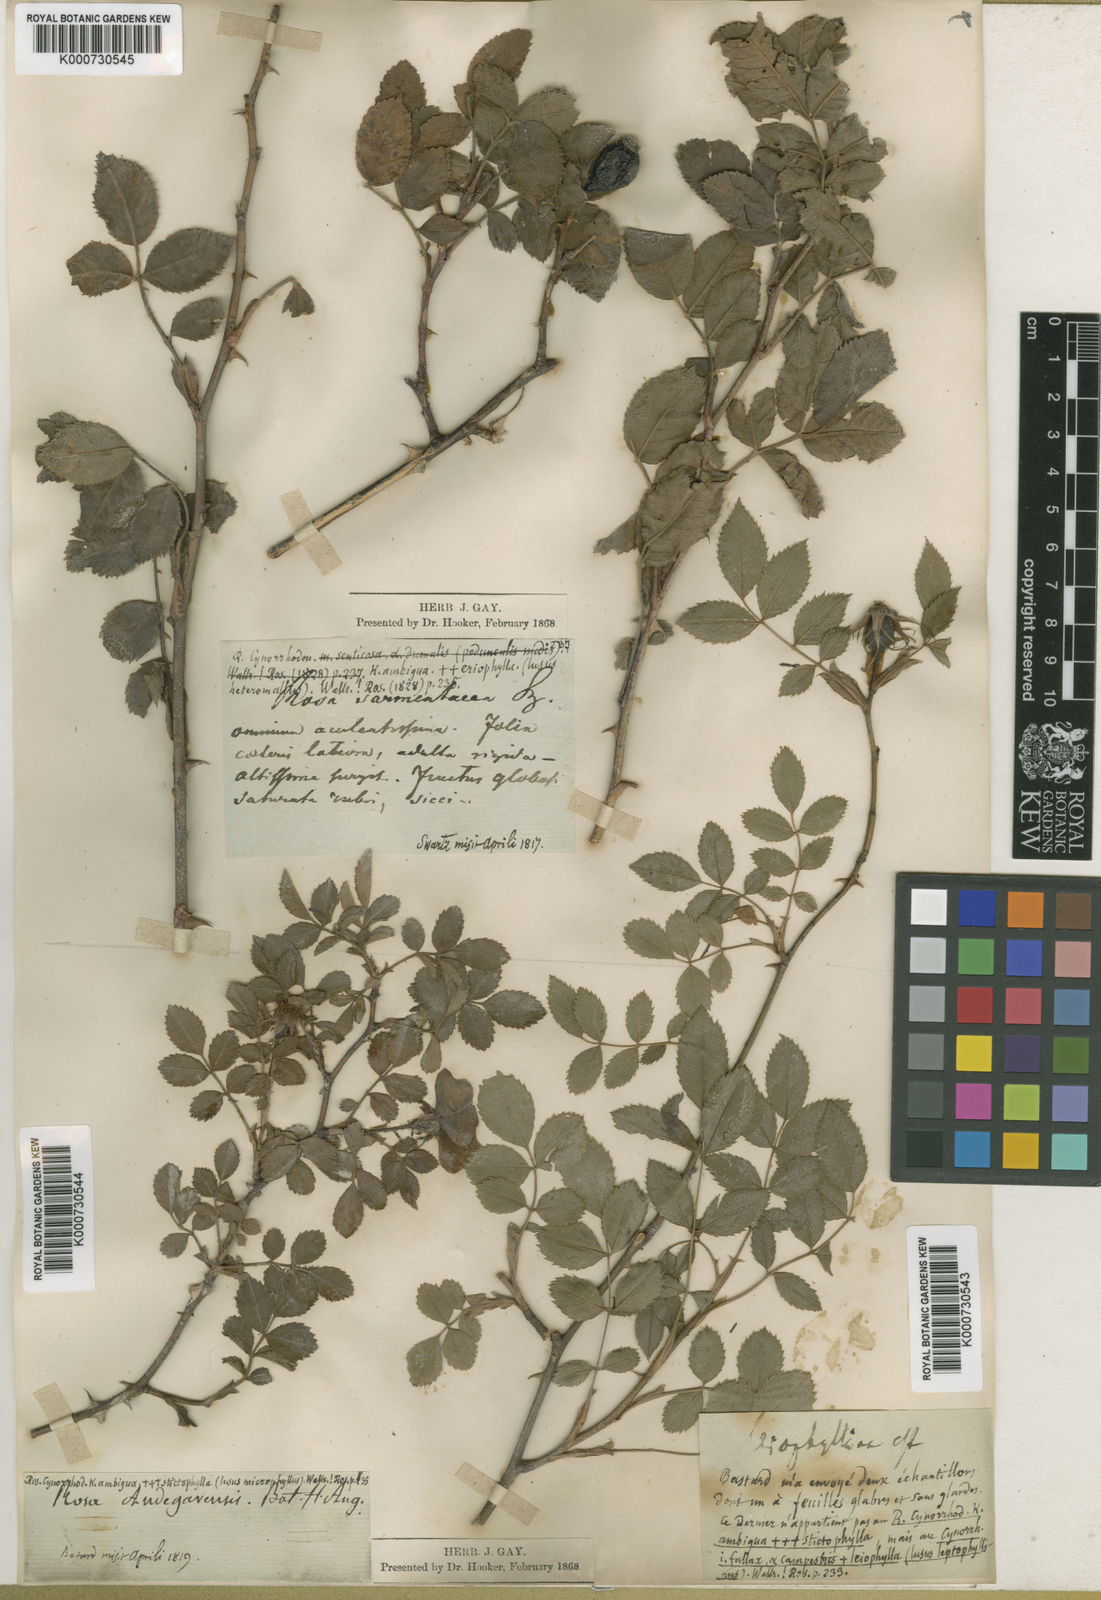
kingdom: Plantae
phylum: Tracheophyta
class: Magnoliopsida
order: Rosales
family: Rosaceae
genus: Rosa
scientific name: Rosa canina
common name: Dog rose
